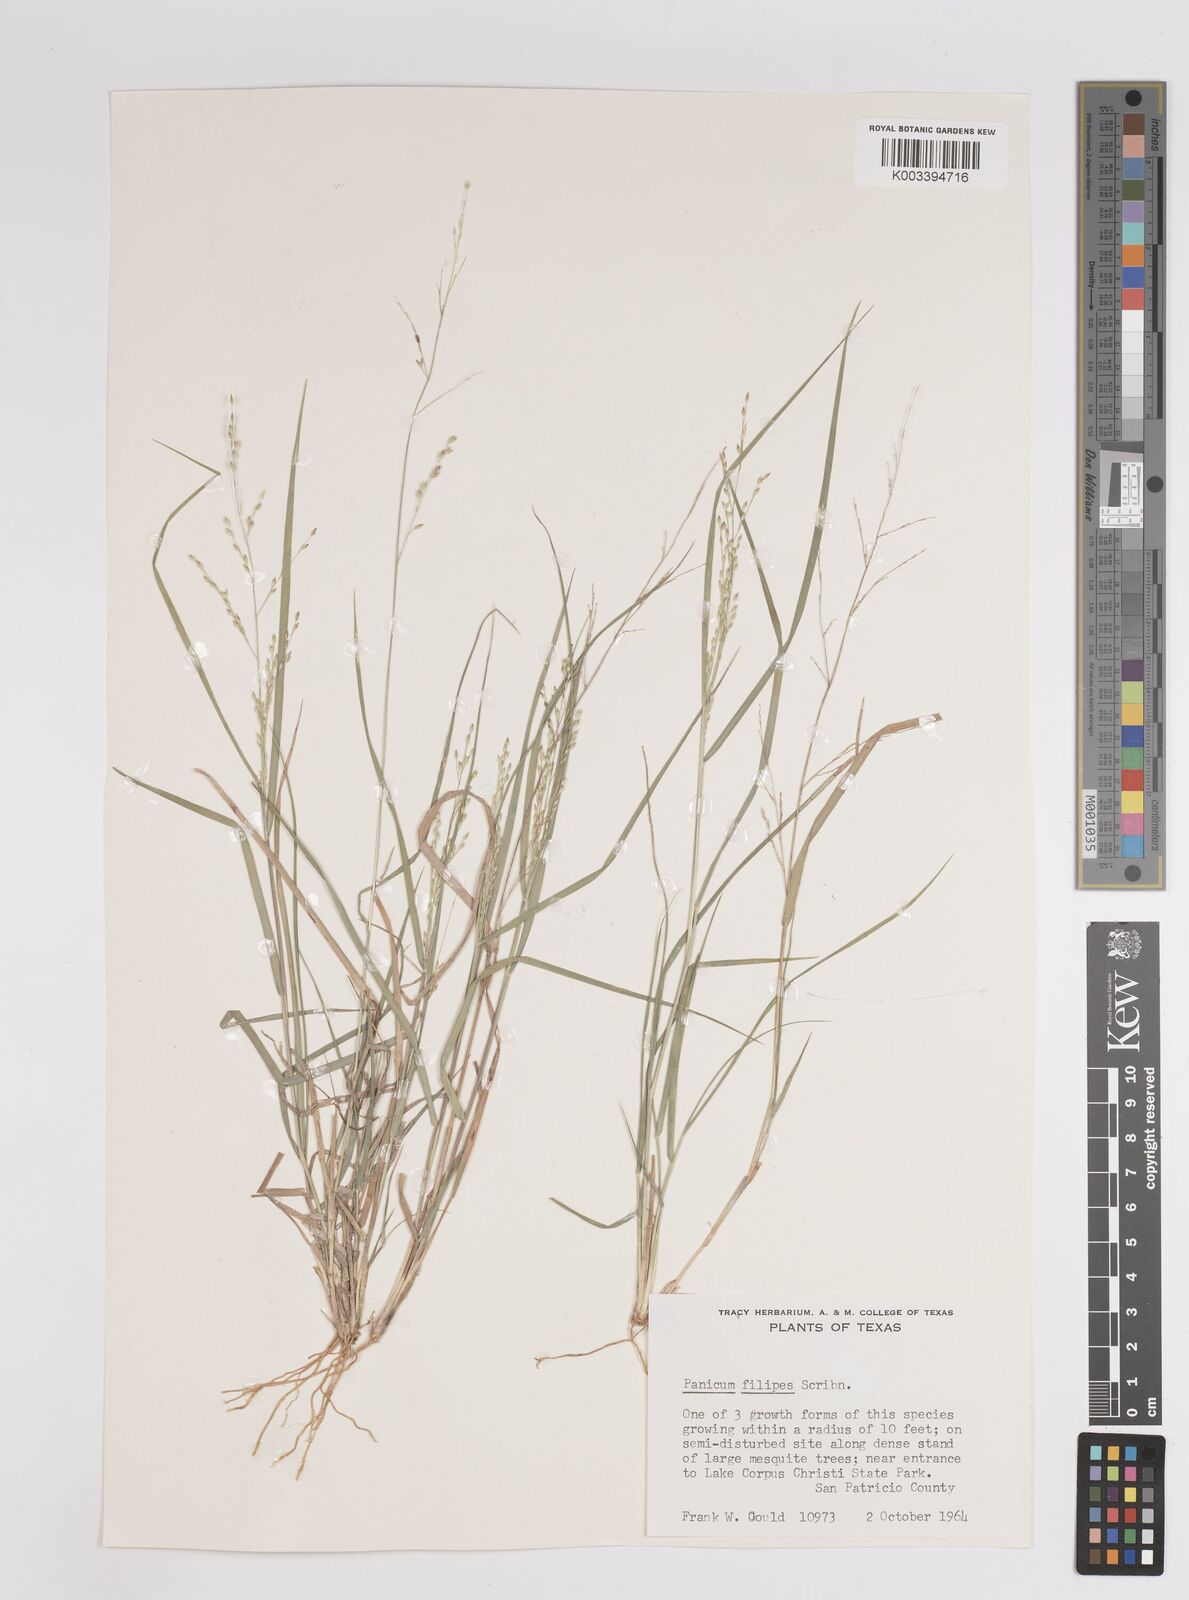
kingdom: Plantae
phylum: Tracheophyta
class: Liliopsida
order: Poales
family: Poaceae
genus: Panicum
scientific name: Panicum hallii
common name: Hall's witchgrass
